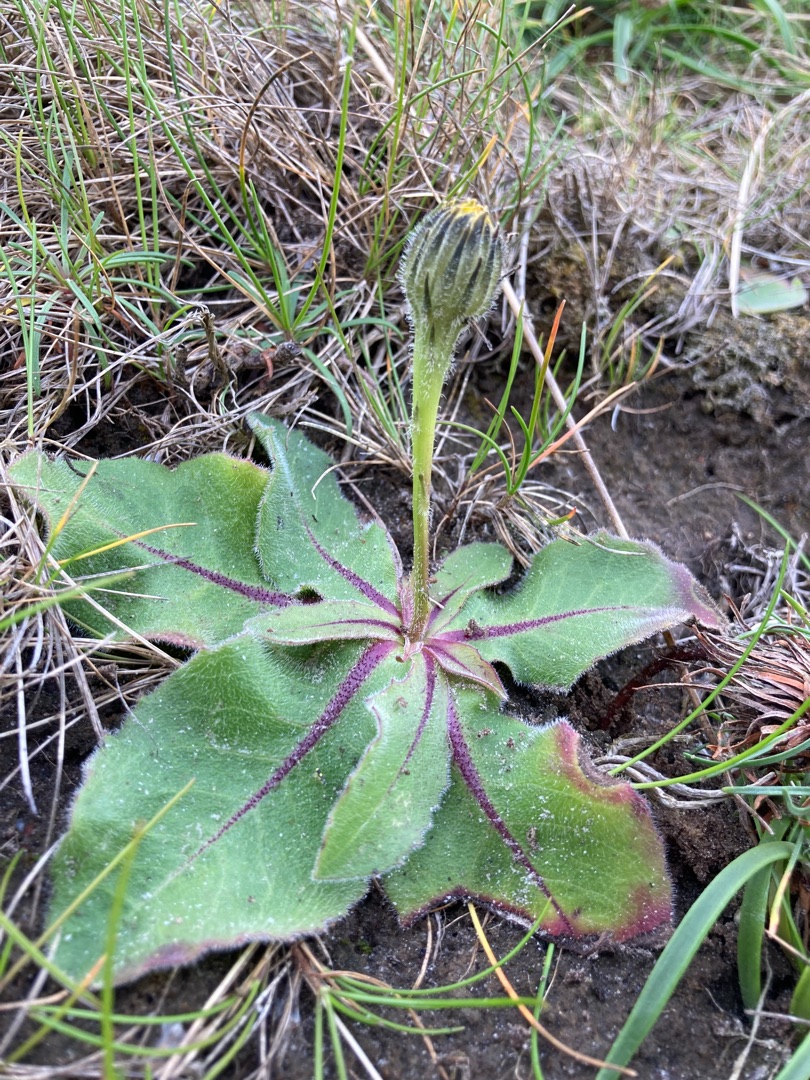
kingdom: Plantae
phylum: Tracheophyta
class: Magnoliopsida
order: Asterales
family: Asteraceae
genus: Trommsdorffia
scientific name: Trommsdorffia maculata
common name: Plettet kongepen
